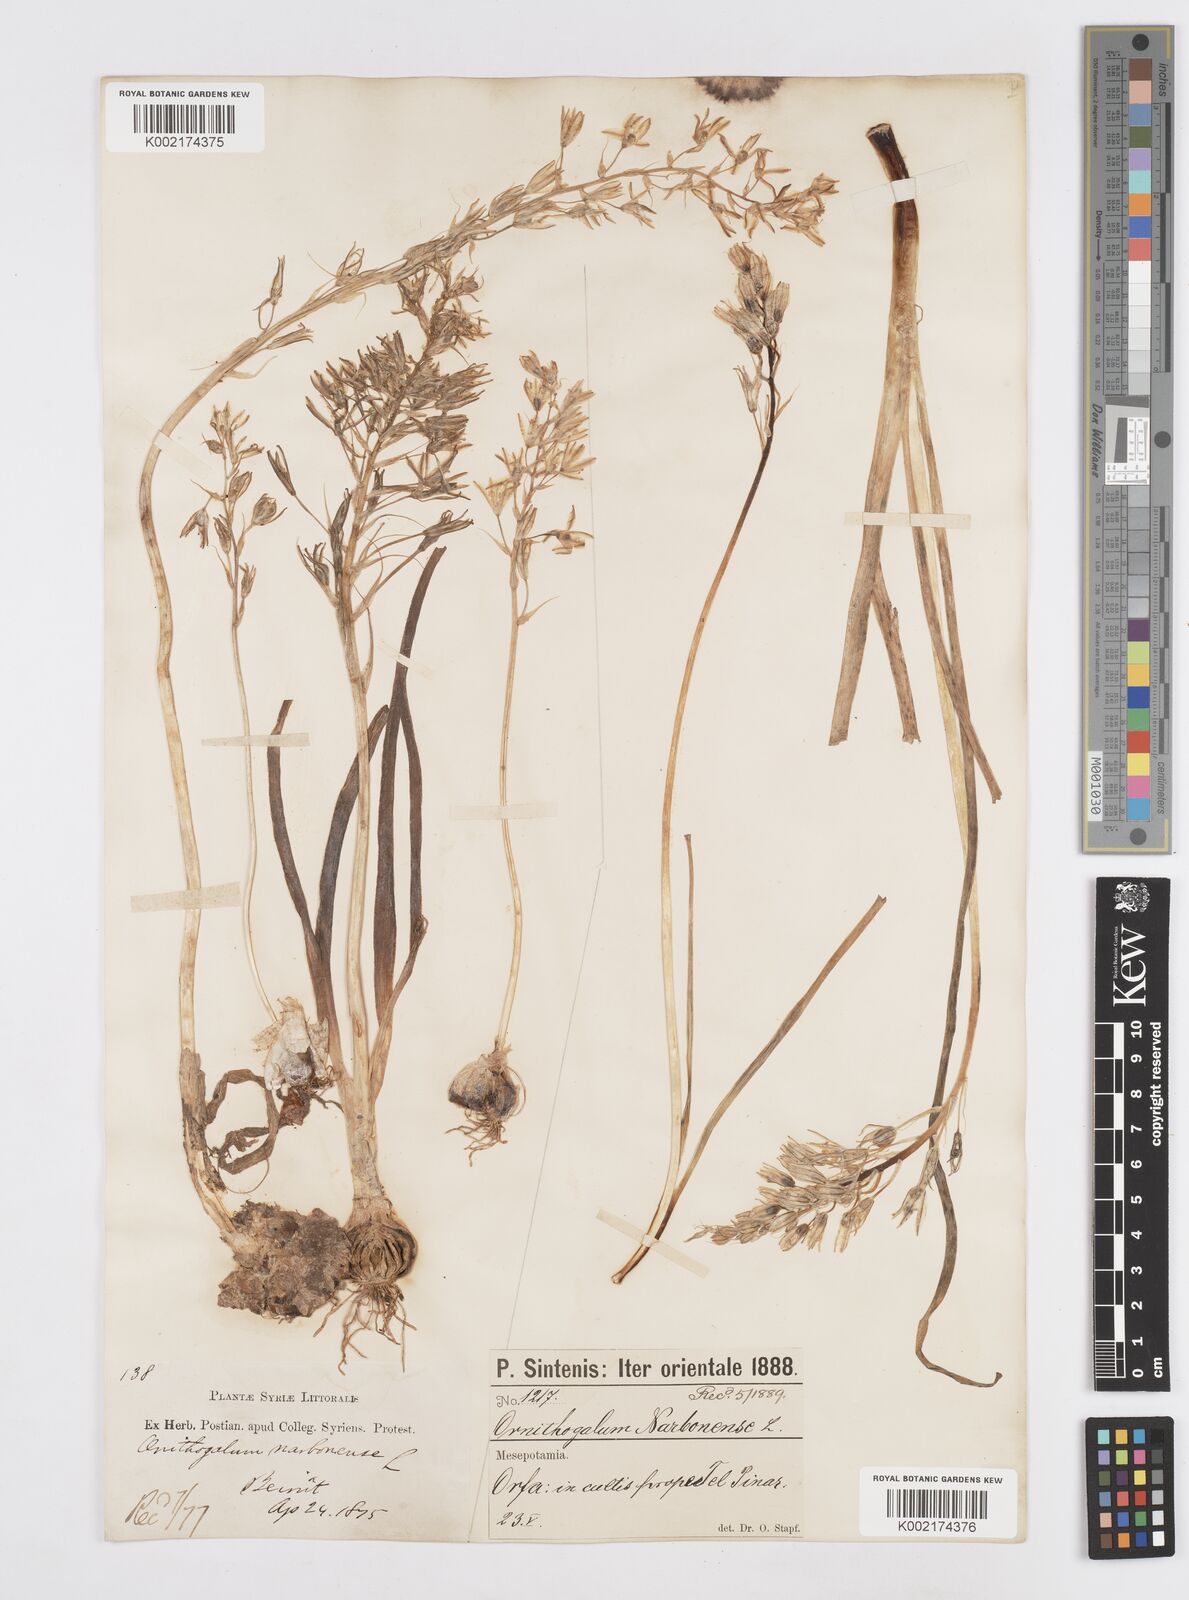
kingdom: Plantae
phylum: Tracheophyta
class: Liliopsida
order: Asparagales
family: Asparagaceae
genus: Ornithogalum
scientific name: Ornithogalum narbonense
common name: Bath-asparagus
